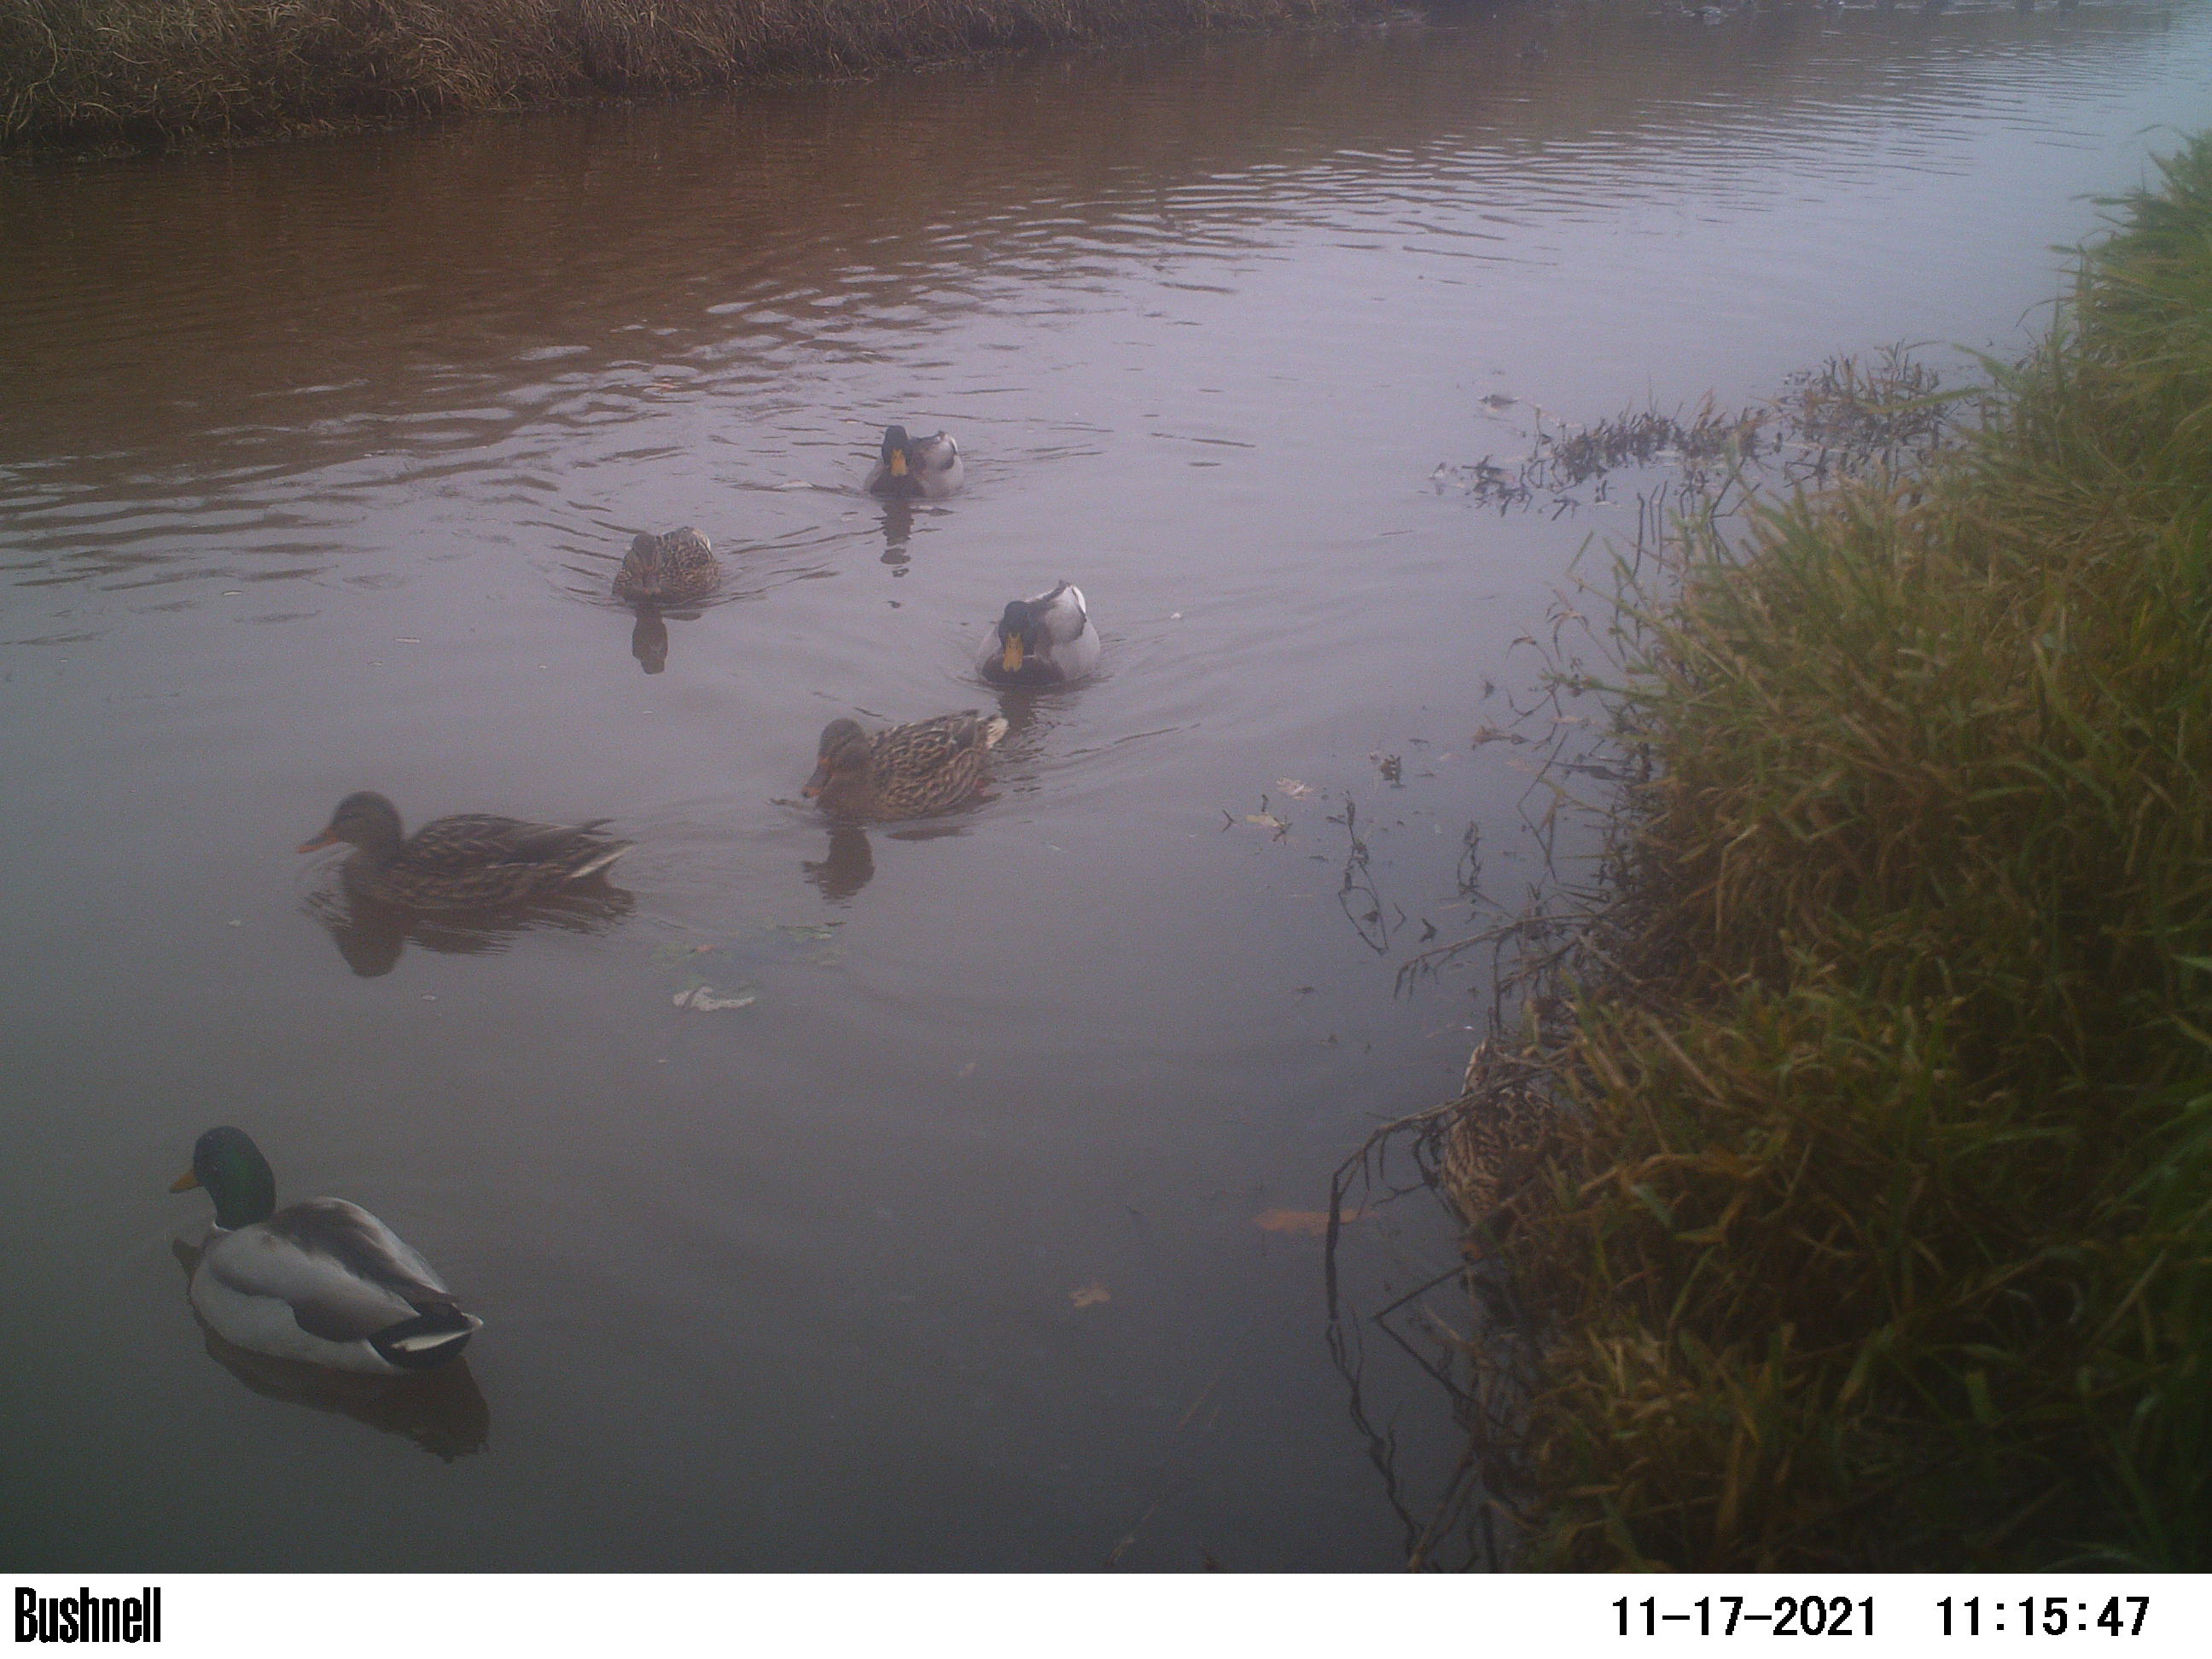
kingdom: Animalia
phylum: Chordata
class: Aves
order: Anseriformes
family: Anatidae
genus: Anas
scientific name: Anas
